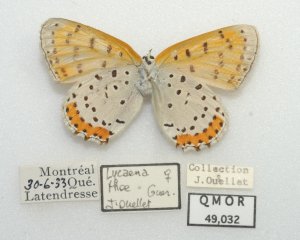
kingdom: Animalia
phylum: Arthropoda
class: Insecta
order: Lepidoptera
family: Sesiidae
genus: Sesia
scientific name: Sesia Lycaena hyllus
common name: Bronze Copper
